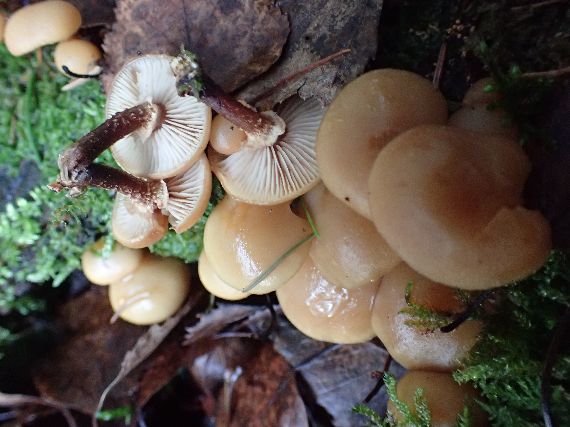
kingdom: Fungi
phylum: Basidiomycota
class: Agaricomycetes
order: Agaricales
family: Strophariaceae
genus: Kuehneromyces
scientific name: Kuehneromyces mutabilis
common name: foranderlig skælhat
